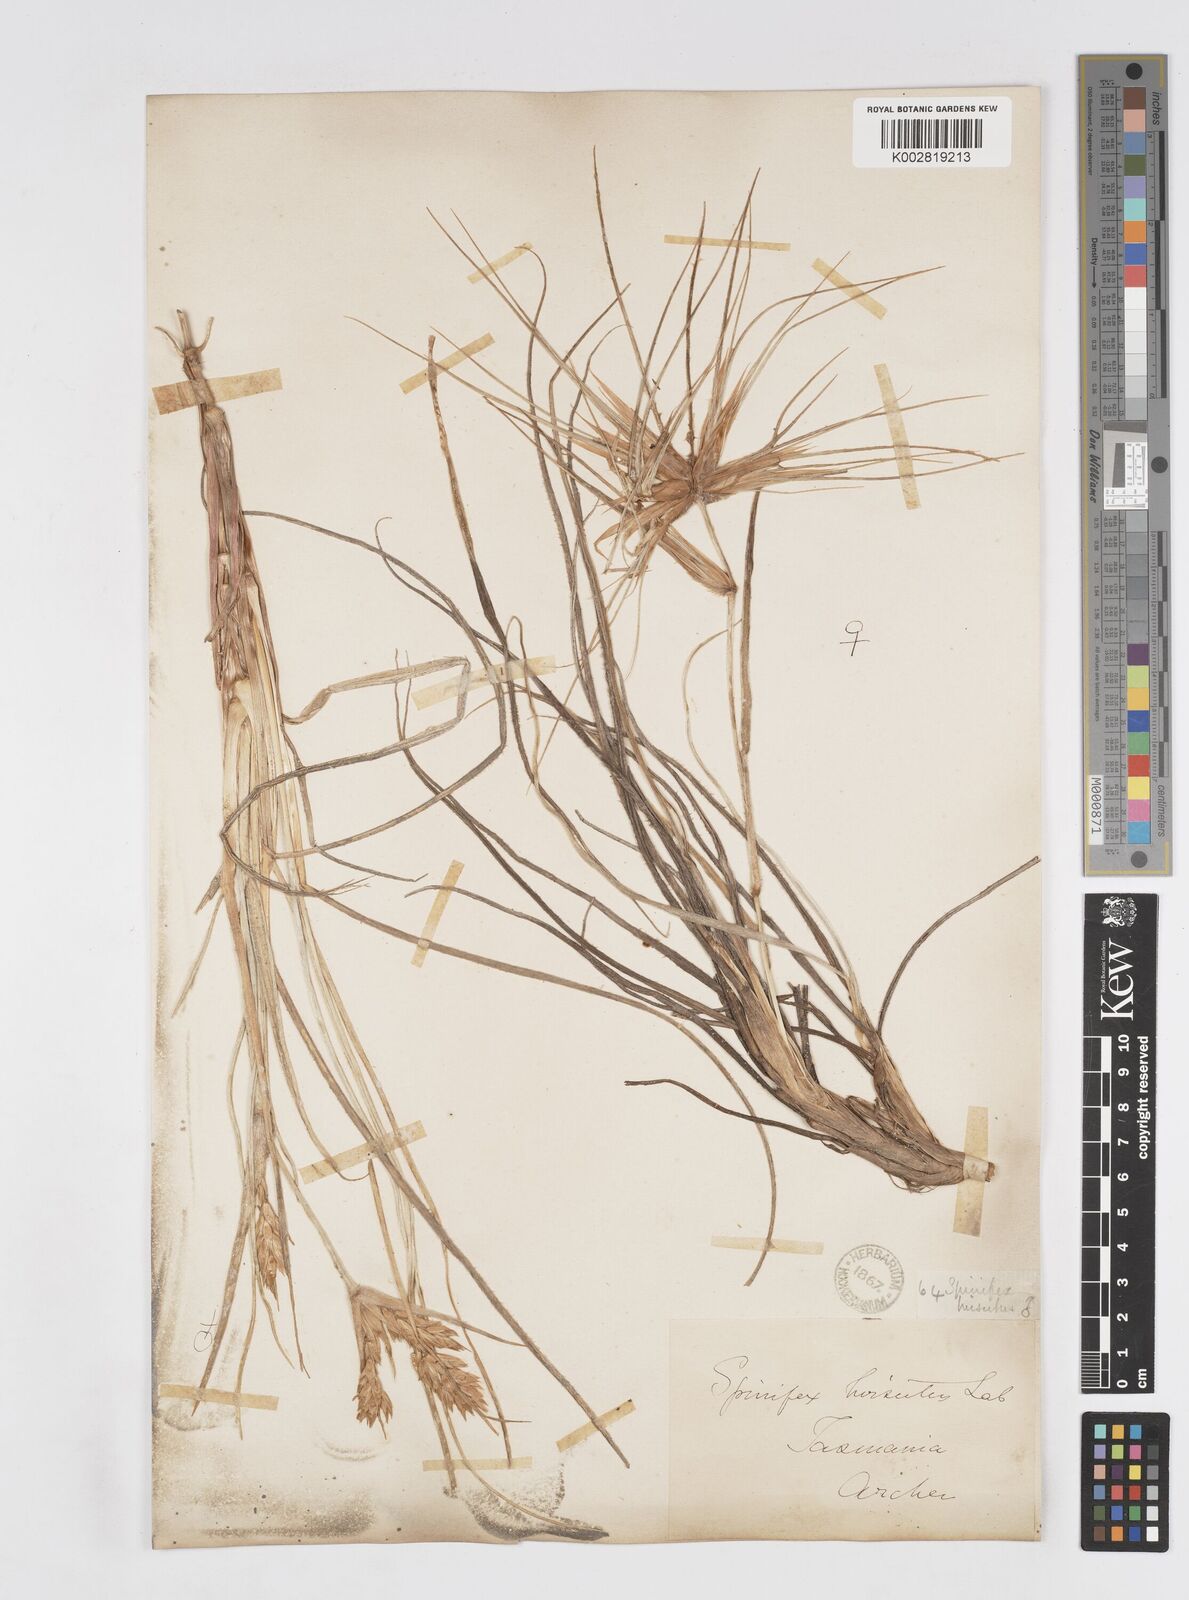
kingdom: Plantae
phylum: Tracheophyta
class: Liliopsida
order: Poales
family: Poaceae
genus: Spinifex
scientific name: Spinifex hirsutus
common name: Hairy spinifex
